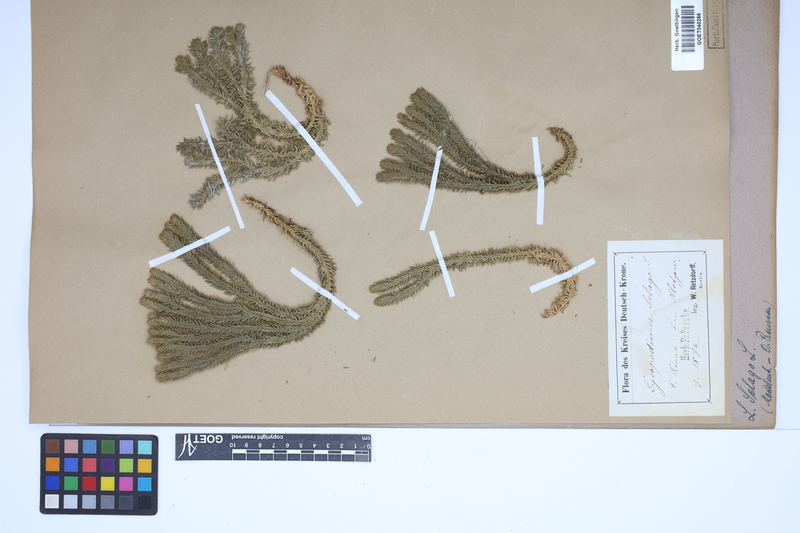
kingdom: Plantae
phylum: Tracheophyta
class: Lycopodiopsida
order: Lycopodiales
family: Lycopodiaceae
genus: Huperzia
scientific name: Huperzia selago
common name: Northern firmoss
